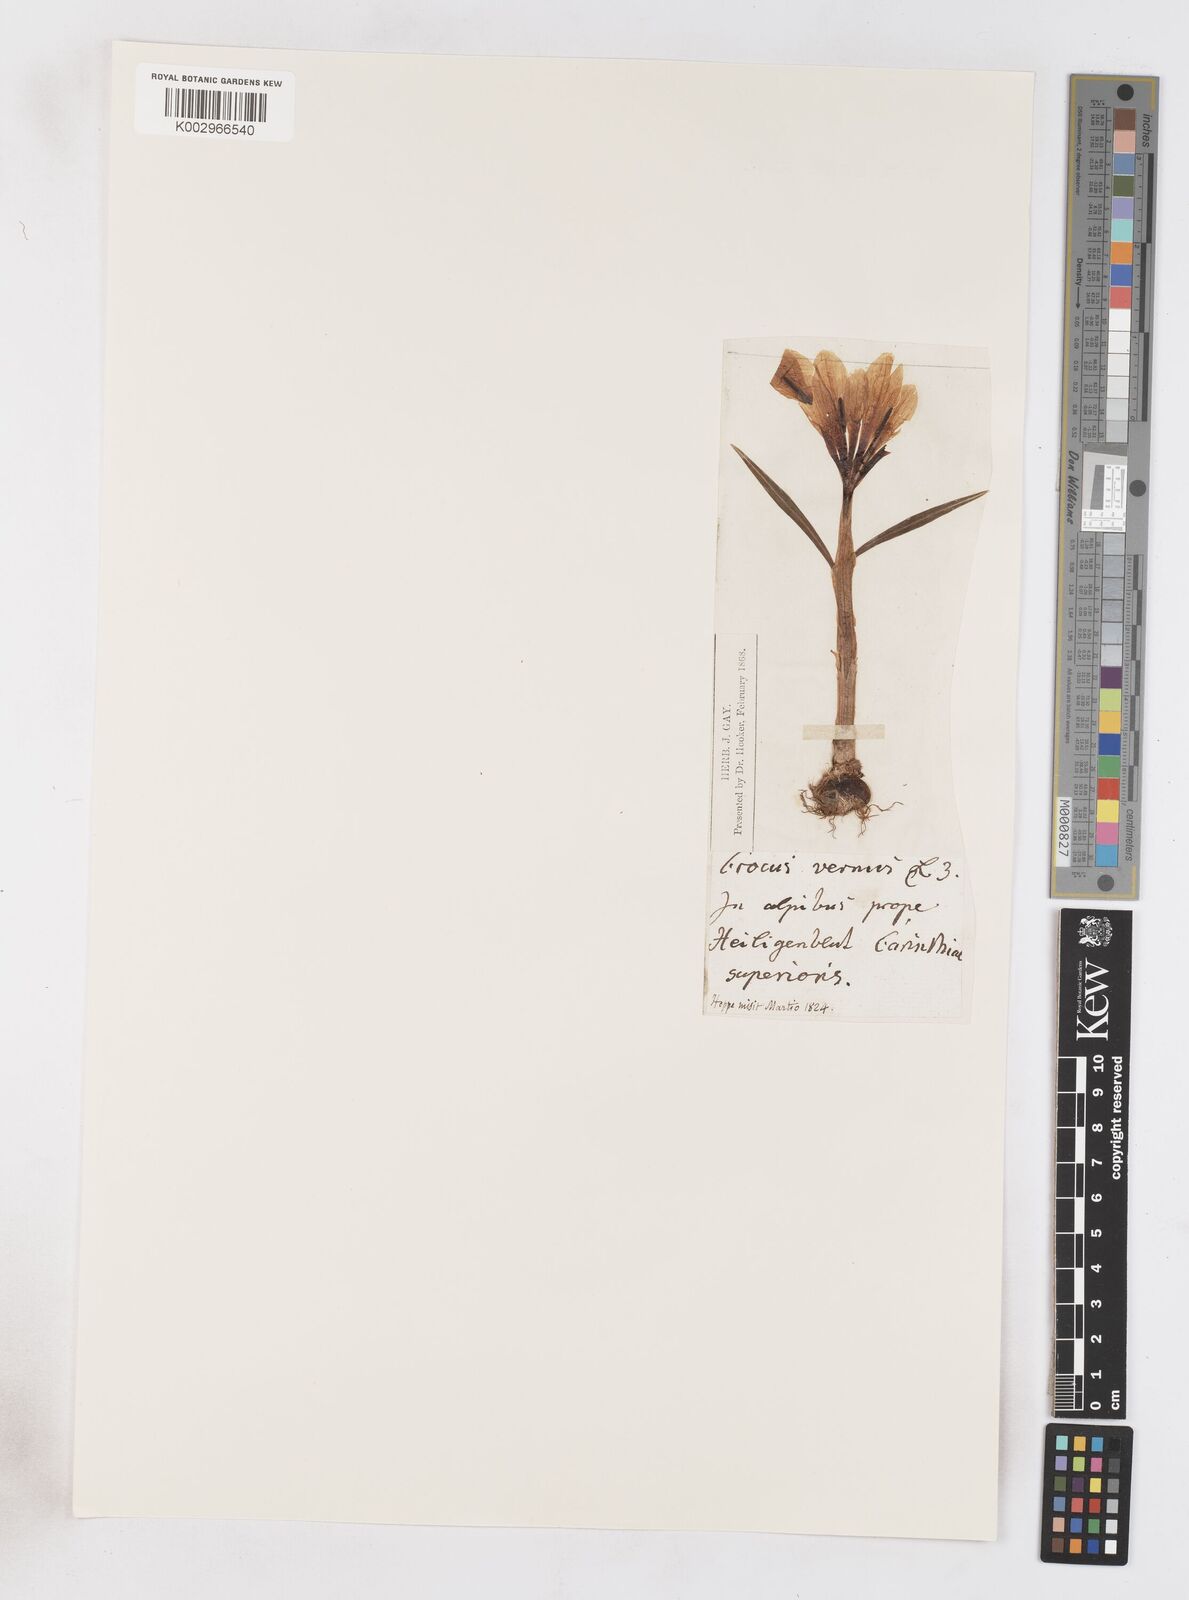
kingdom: Plantae
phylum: Tracheophyta
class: Liliopsida
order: Asparagales
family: Iridaceae
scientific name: Iridaceae
